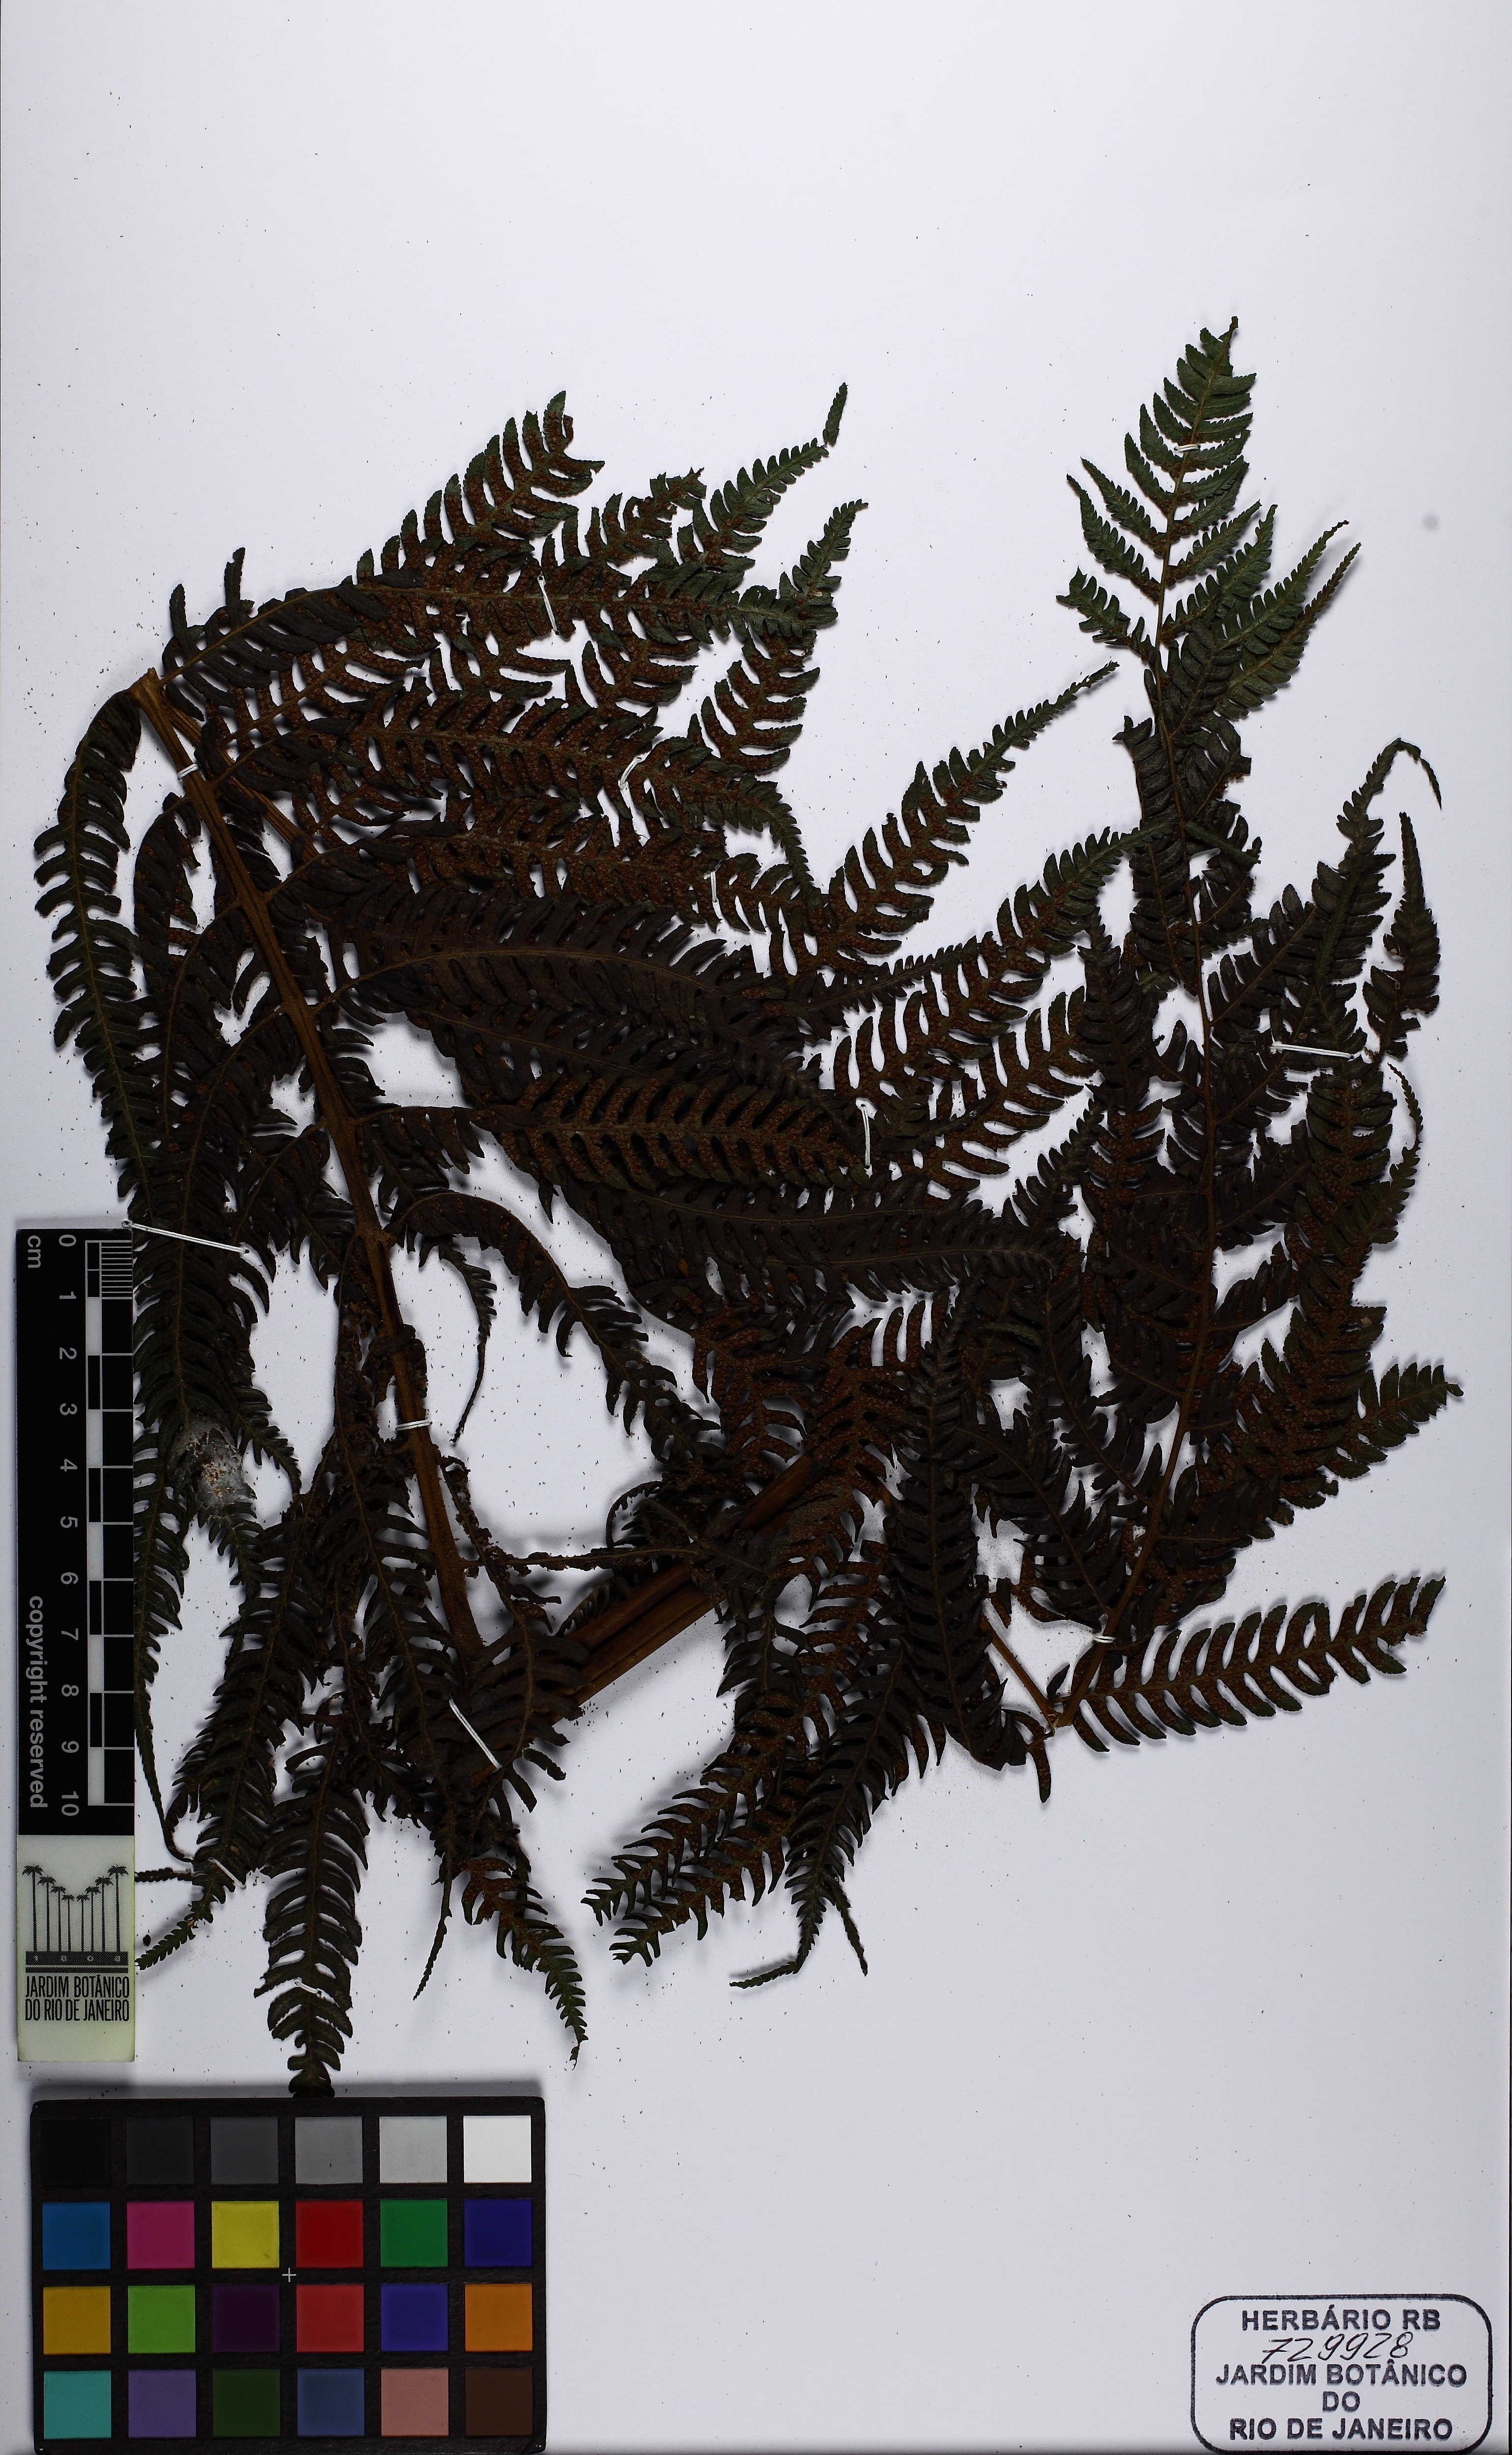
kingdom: Plantae
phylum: Tracheophyta
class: Polypodiopsida
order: Cyatheales
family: Cyatheaceae
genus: Cyathea
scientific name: Cyathea
